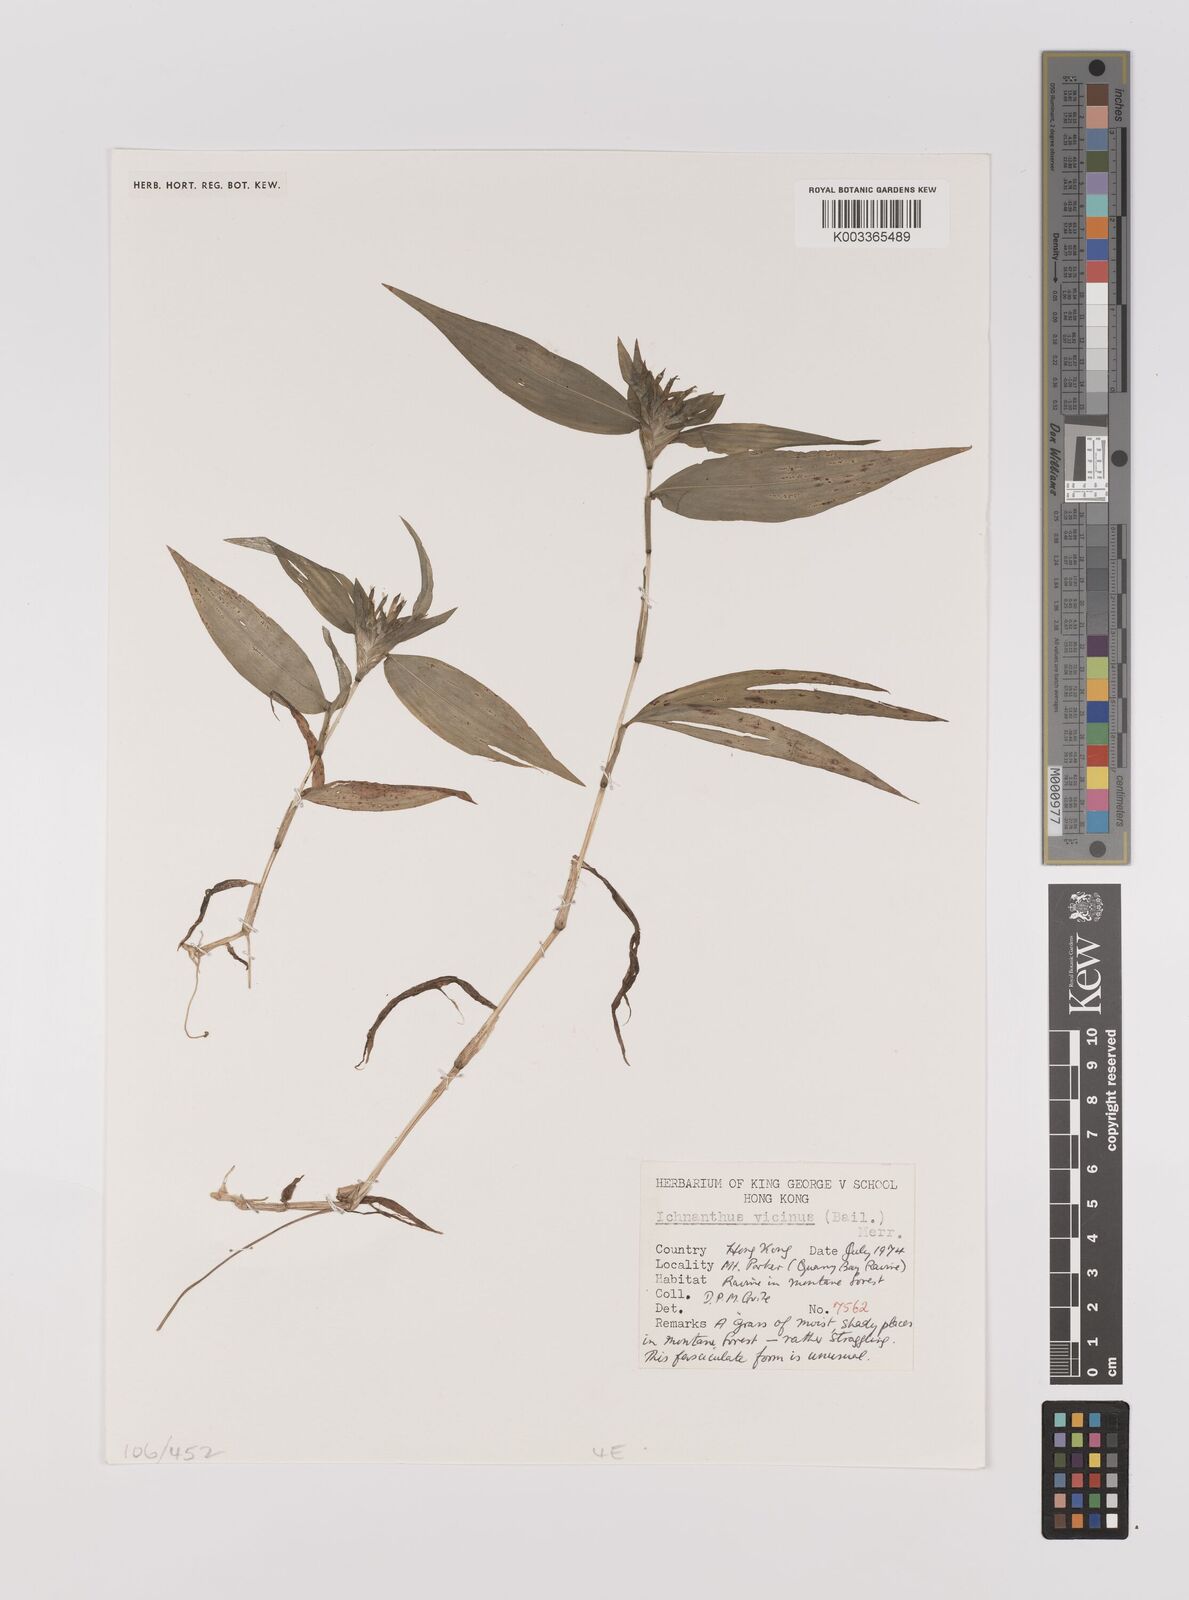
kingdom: Plantae
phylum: Tracheophyta
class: Liliopsida
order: Poales
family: Poaceae
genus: Ichnanthus
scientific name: Ichnanthus pallens
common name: Water grass
